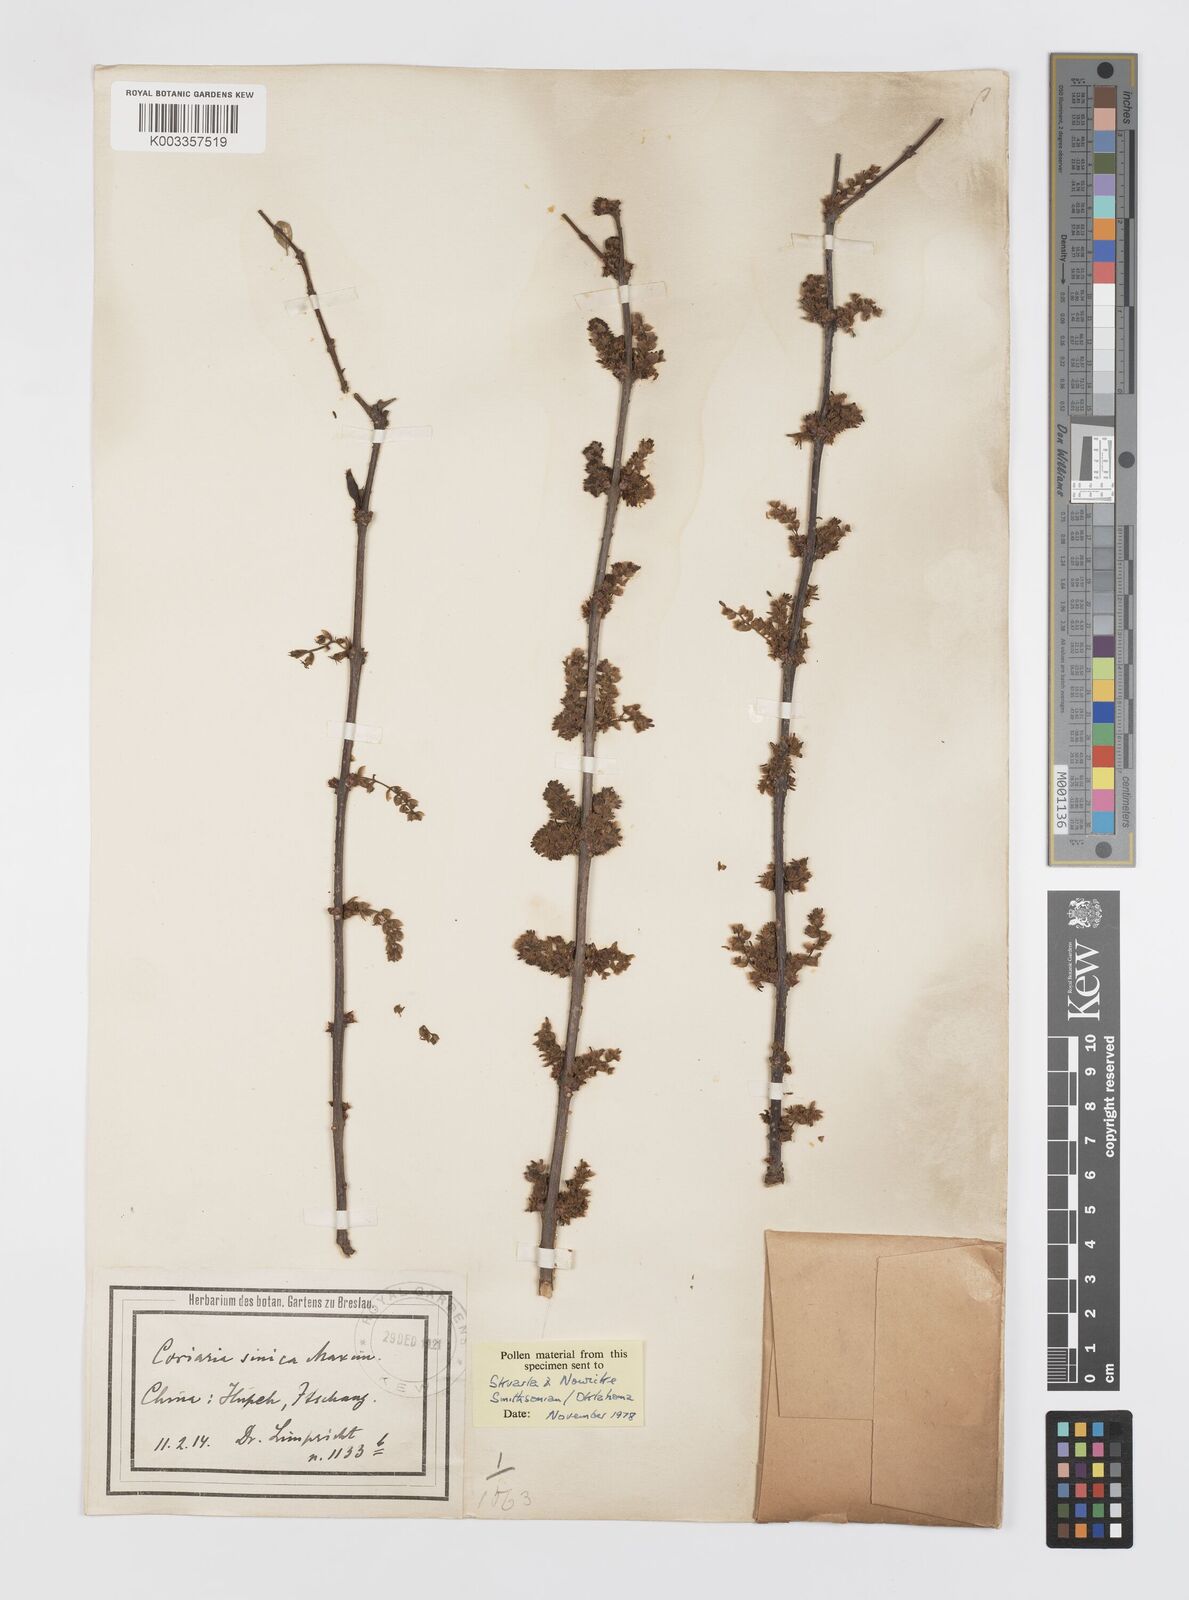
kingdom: Plantae
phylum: Tracheophyta
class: Magnoliopsida
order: Cucurbitales
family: Coriariaceae
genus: Coriaria
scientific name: Coriaria napalensis
